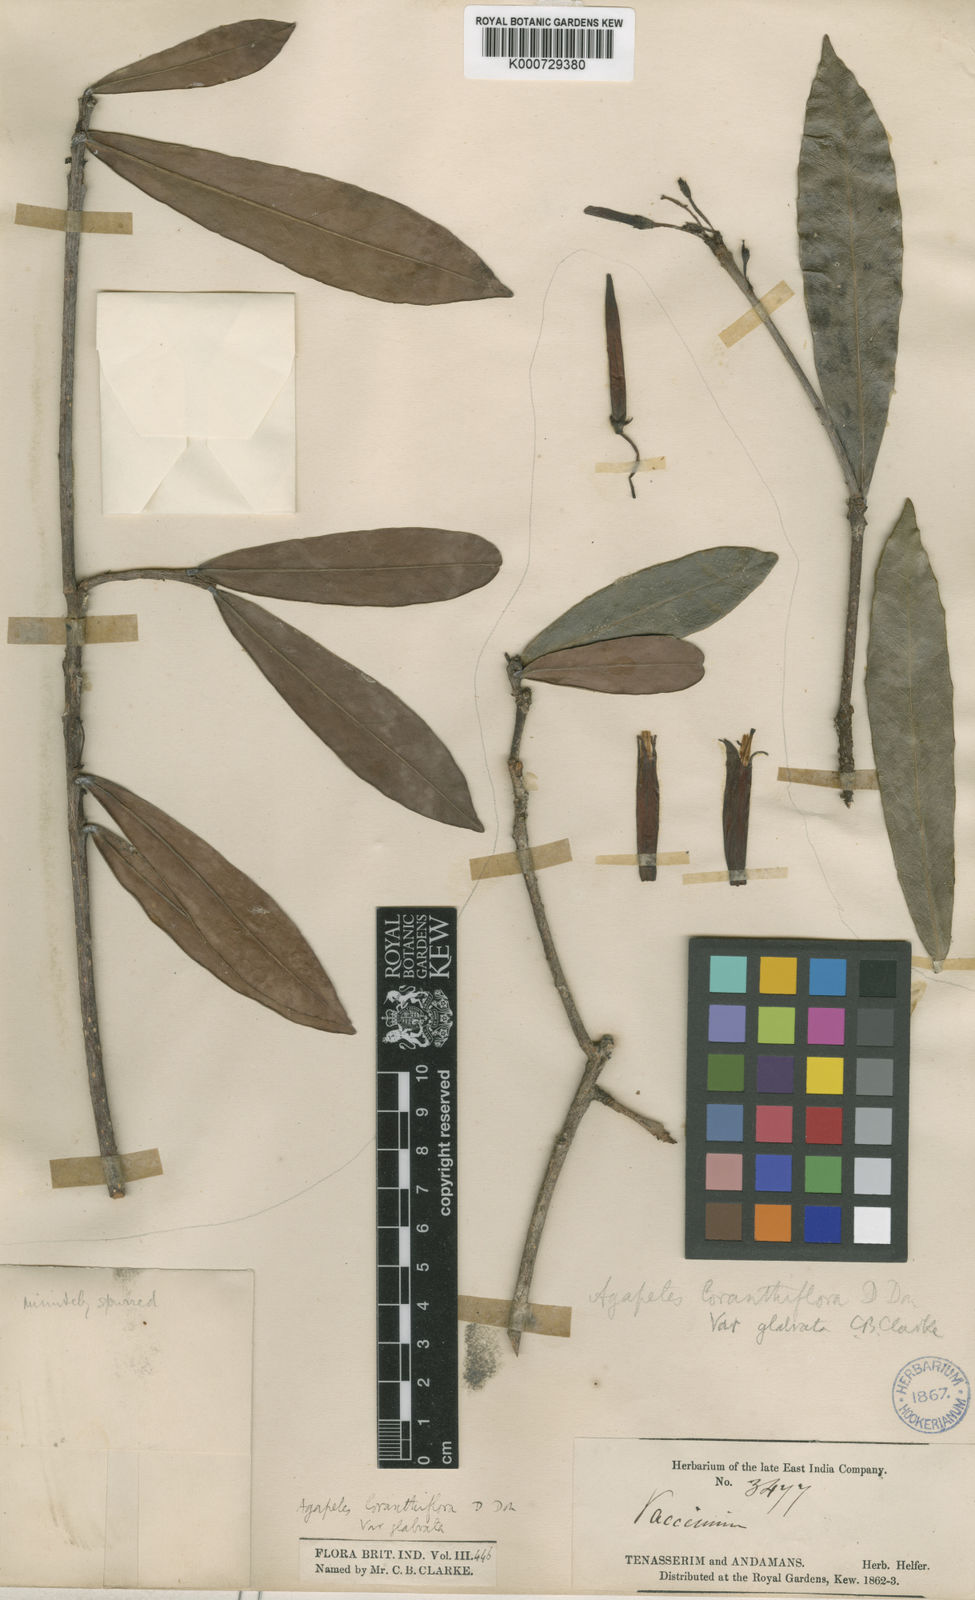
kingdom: Plantae
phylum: Tracheophyta
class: Magnoliopsida
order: Ericales
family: Ericaceae
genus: Agapetes
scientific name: Agapetes loranthiflora
